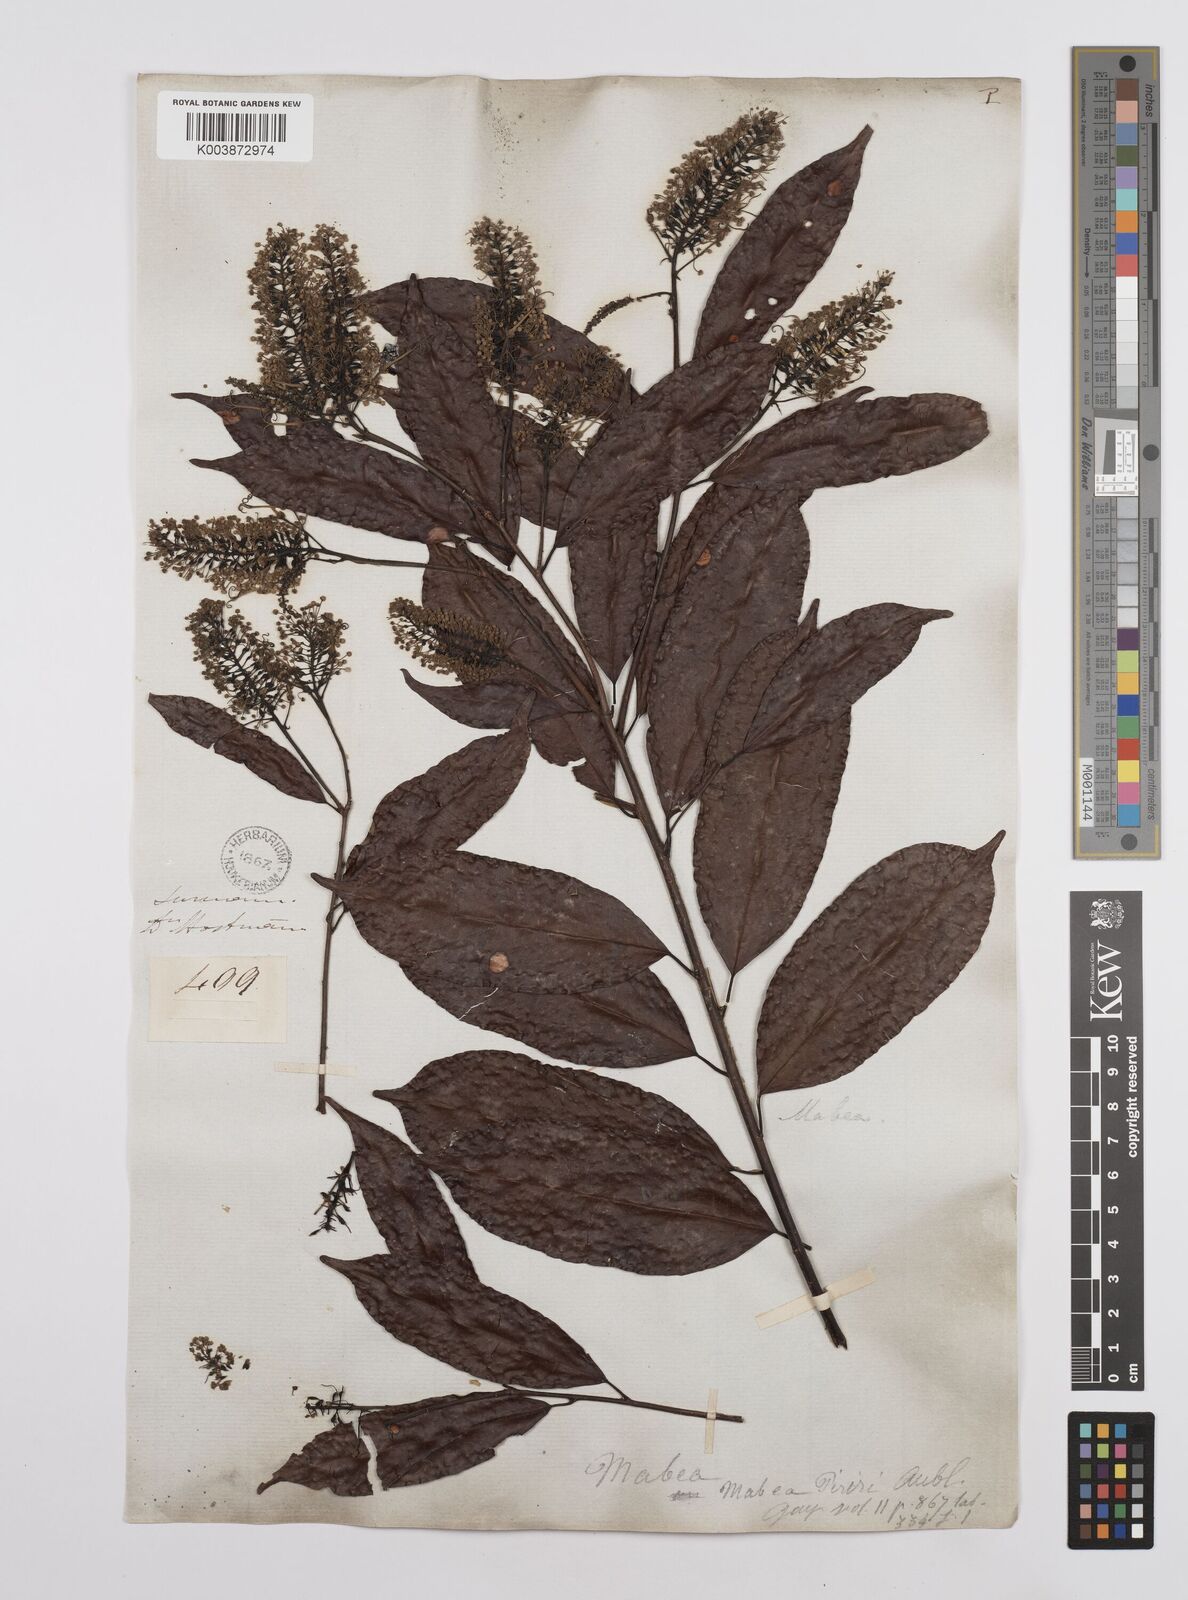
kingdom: Plantae
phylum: Tracheophyta
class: Magnoliopsida
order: Malpighiales
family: Euphorbiaceae
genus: Mabea
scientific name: Mabea piriri
